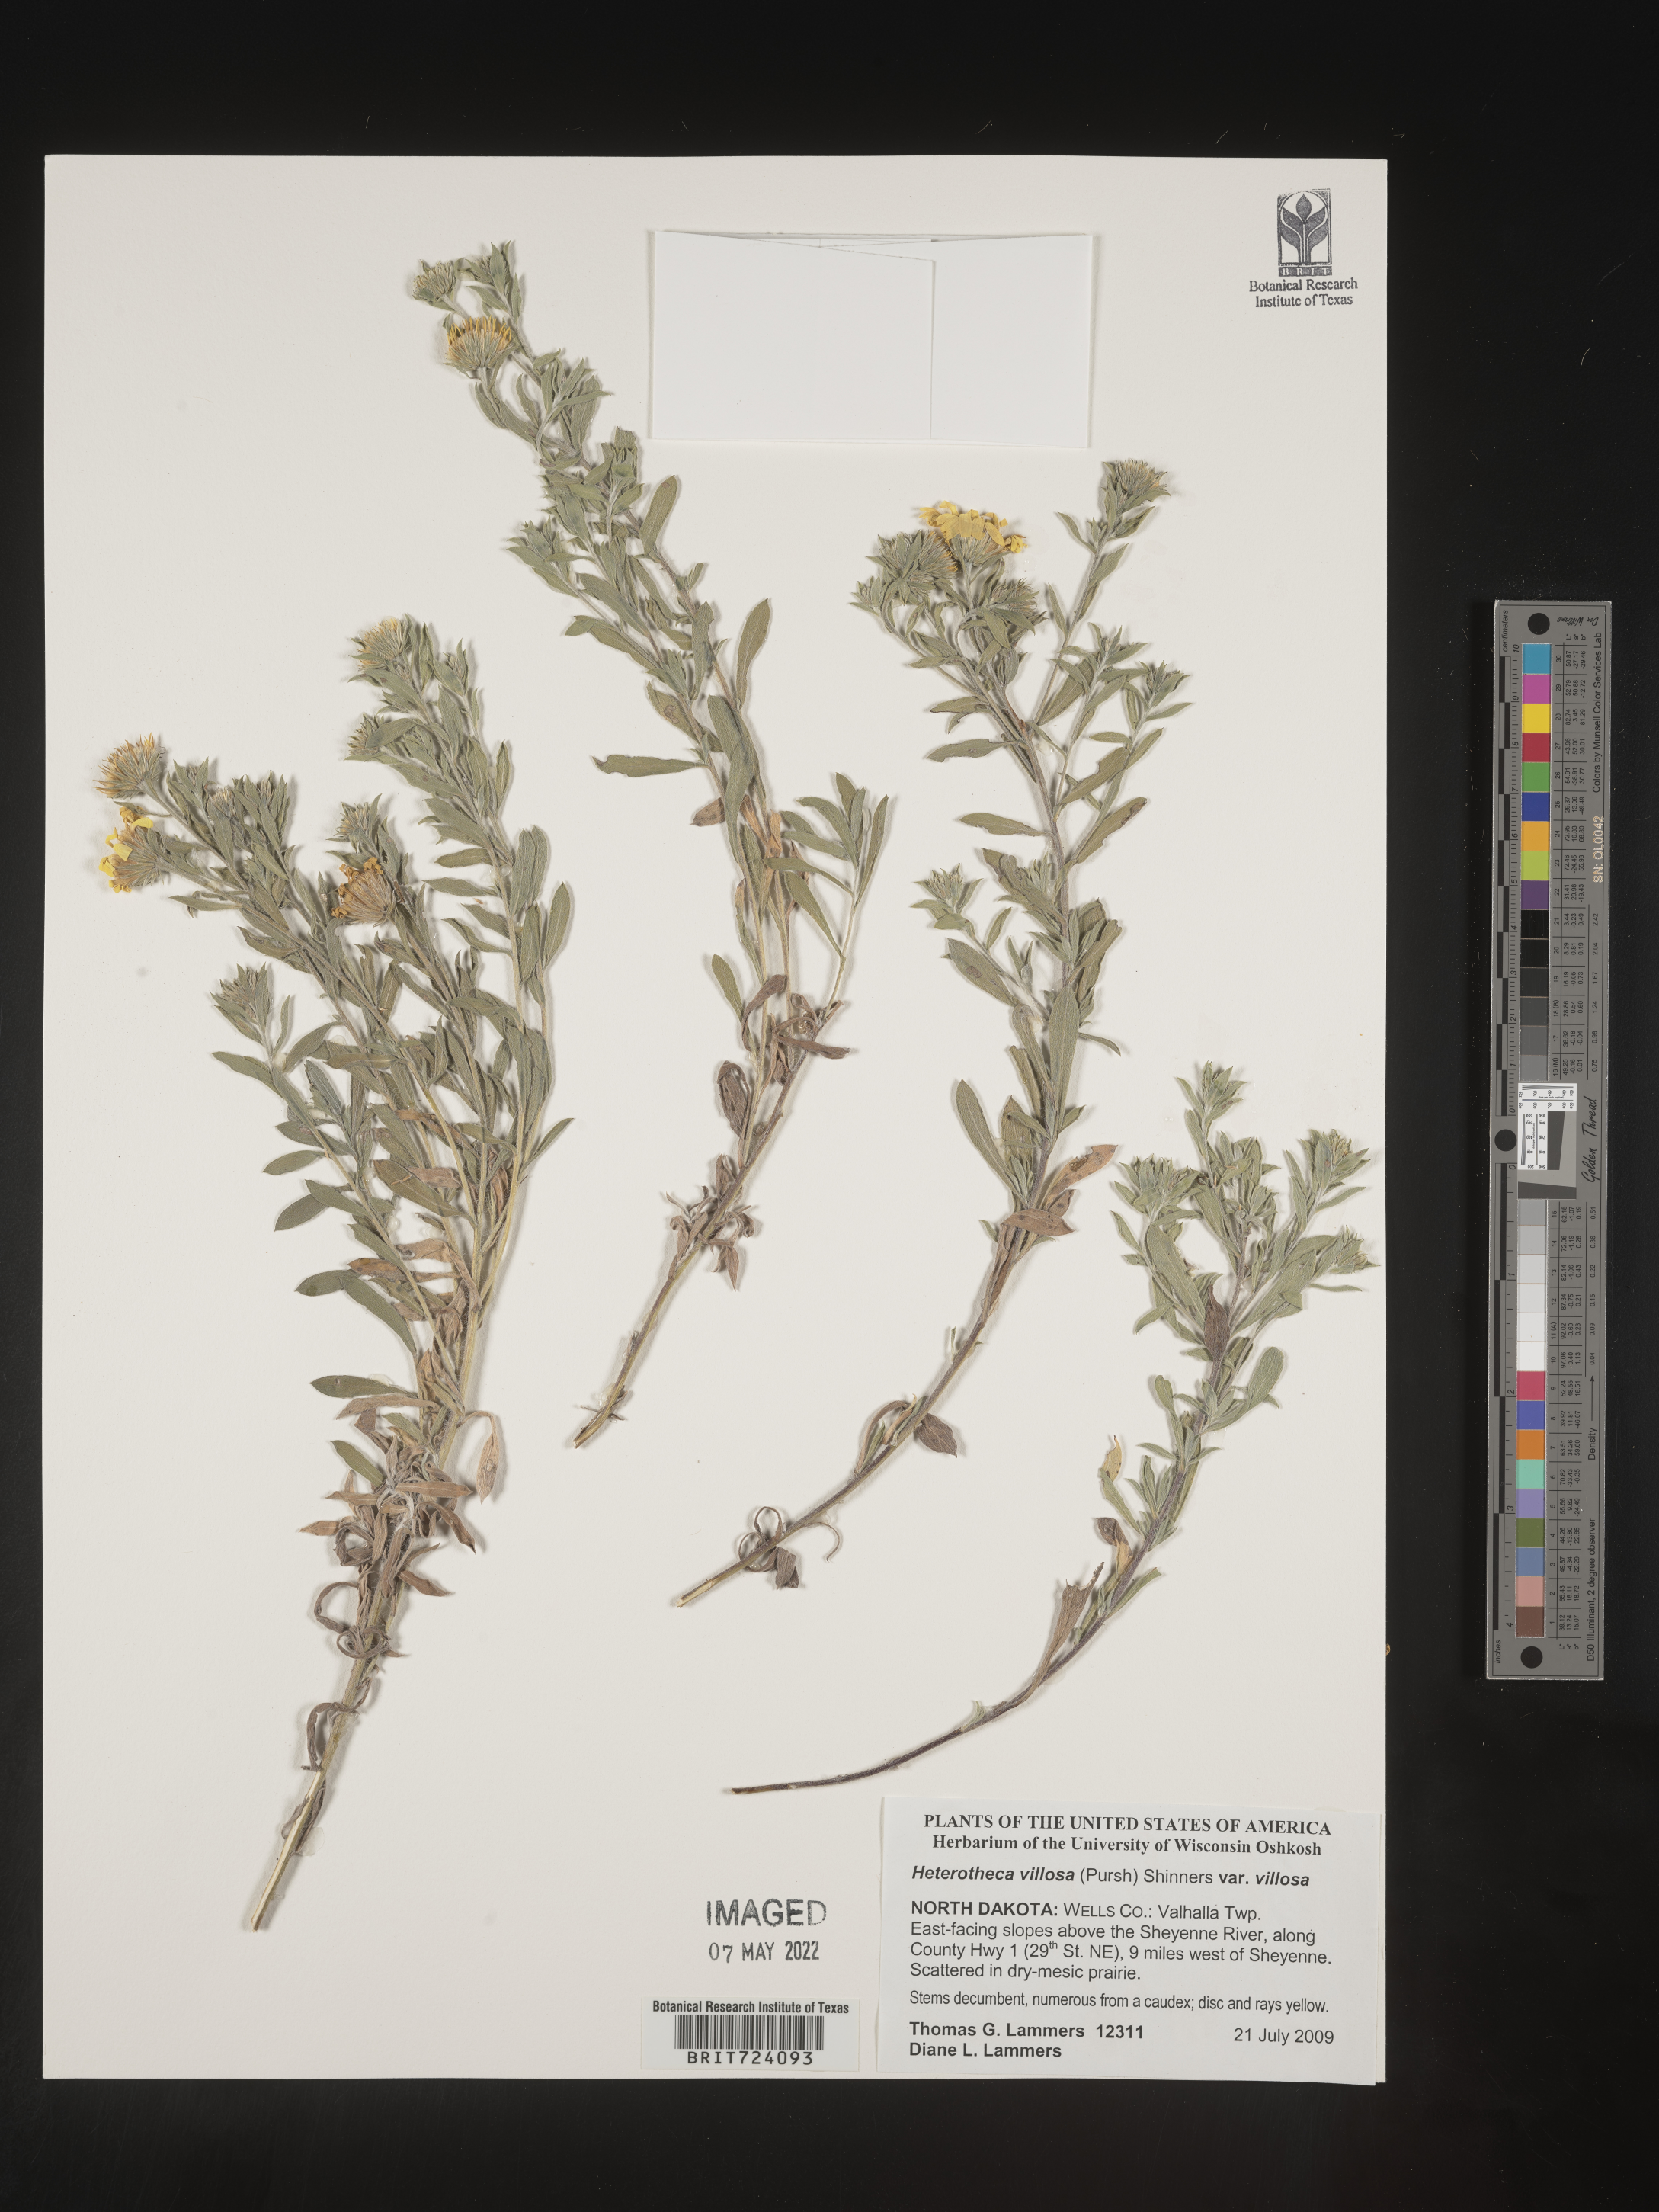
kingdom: Plantae
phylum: Tracheophyta
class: Magnoliopsida
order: Asterales
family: Asteraceae
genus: Heterotheca
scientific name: Heterotheca villosa
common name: Hairy false goldenaster
